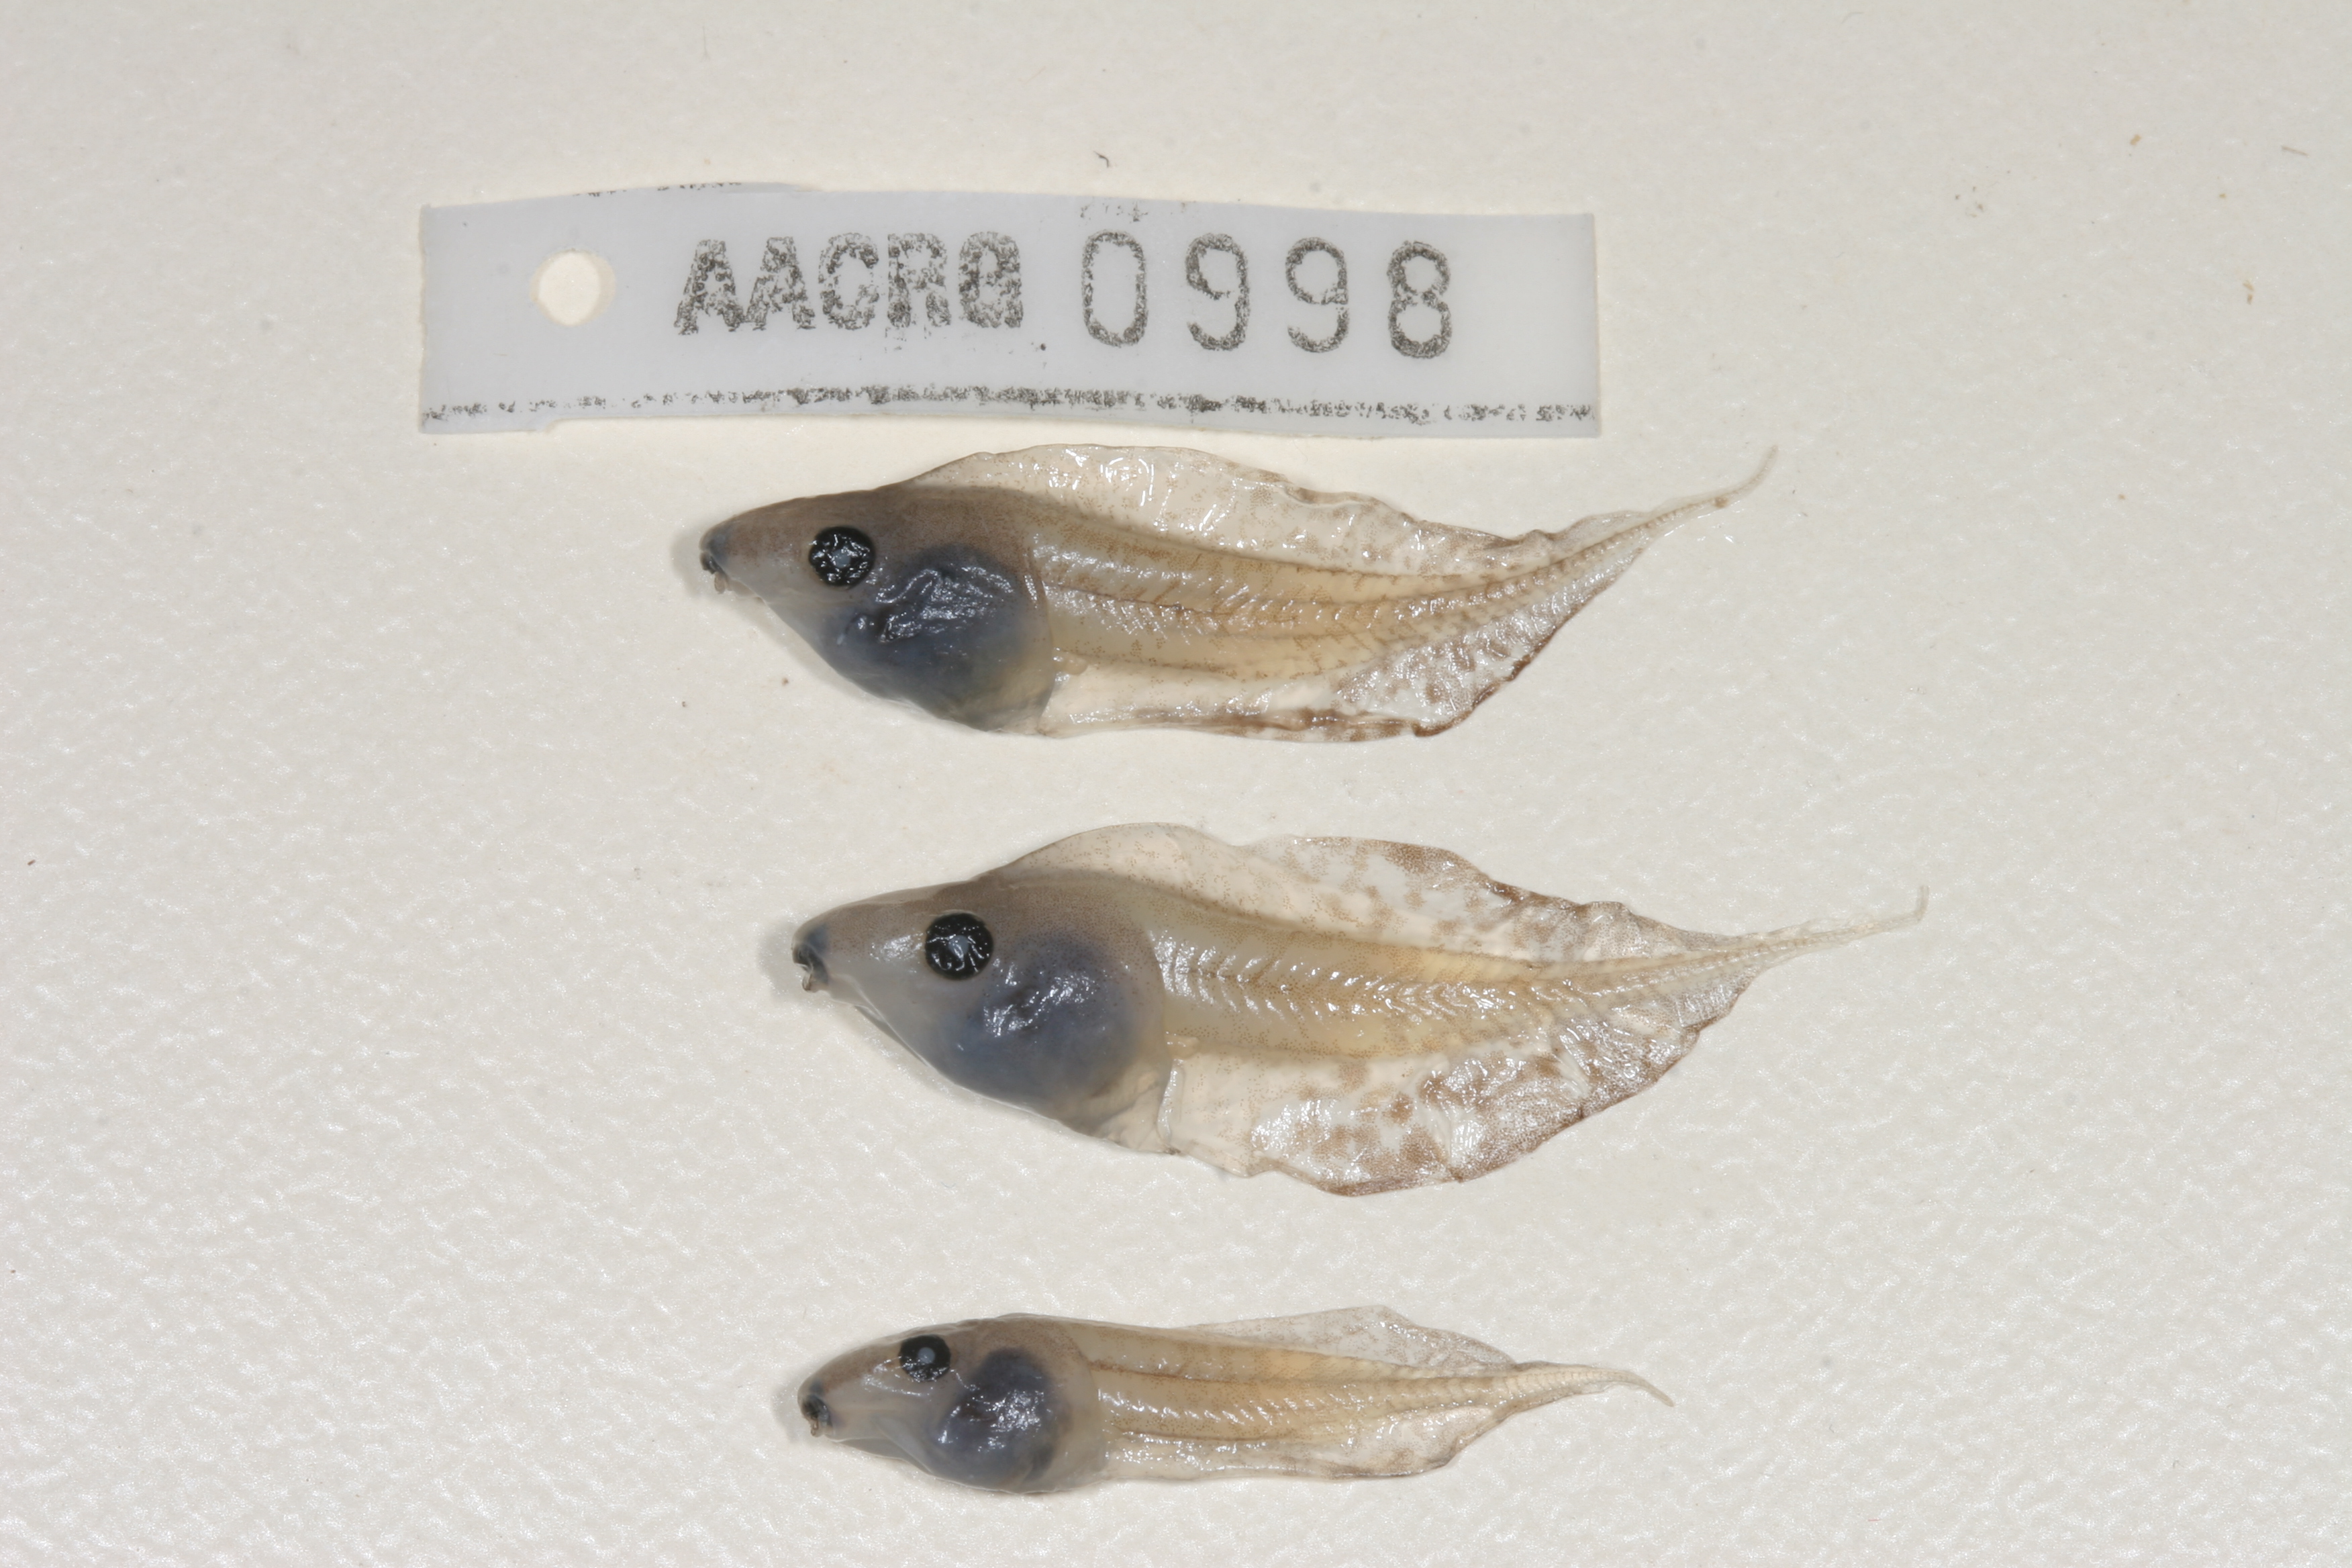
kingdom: Animalia
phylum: Chordata
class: Amphibia
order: Anura
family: Hyperoliidae
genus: Kassina
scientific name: Kassina senegalensis
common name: Senegal land frog
